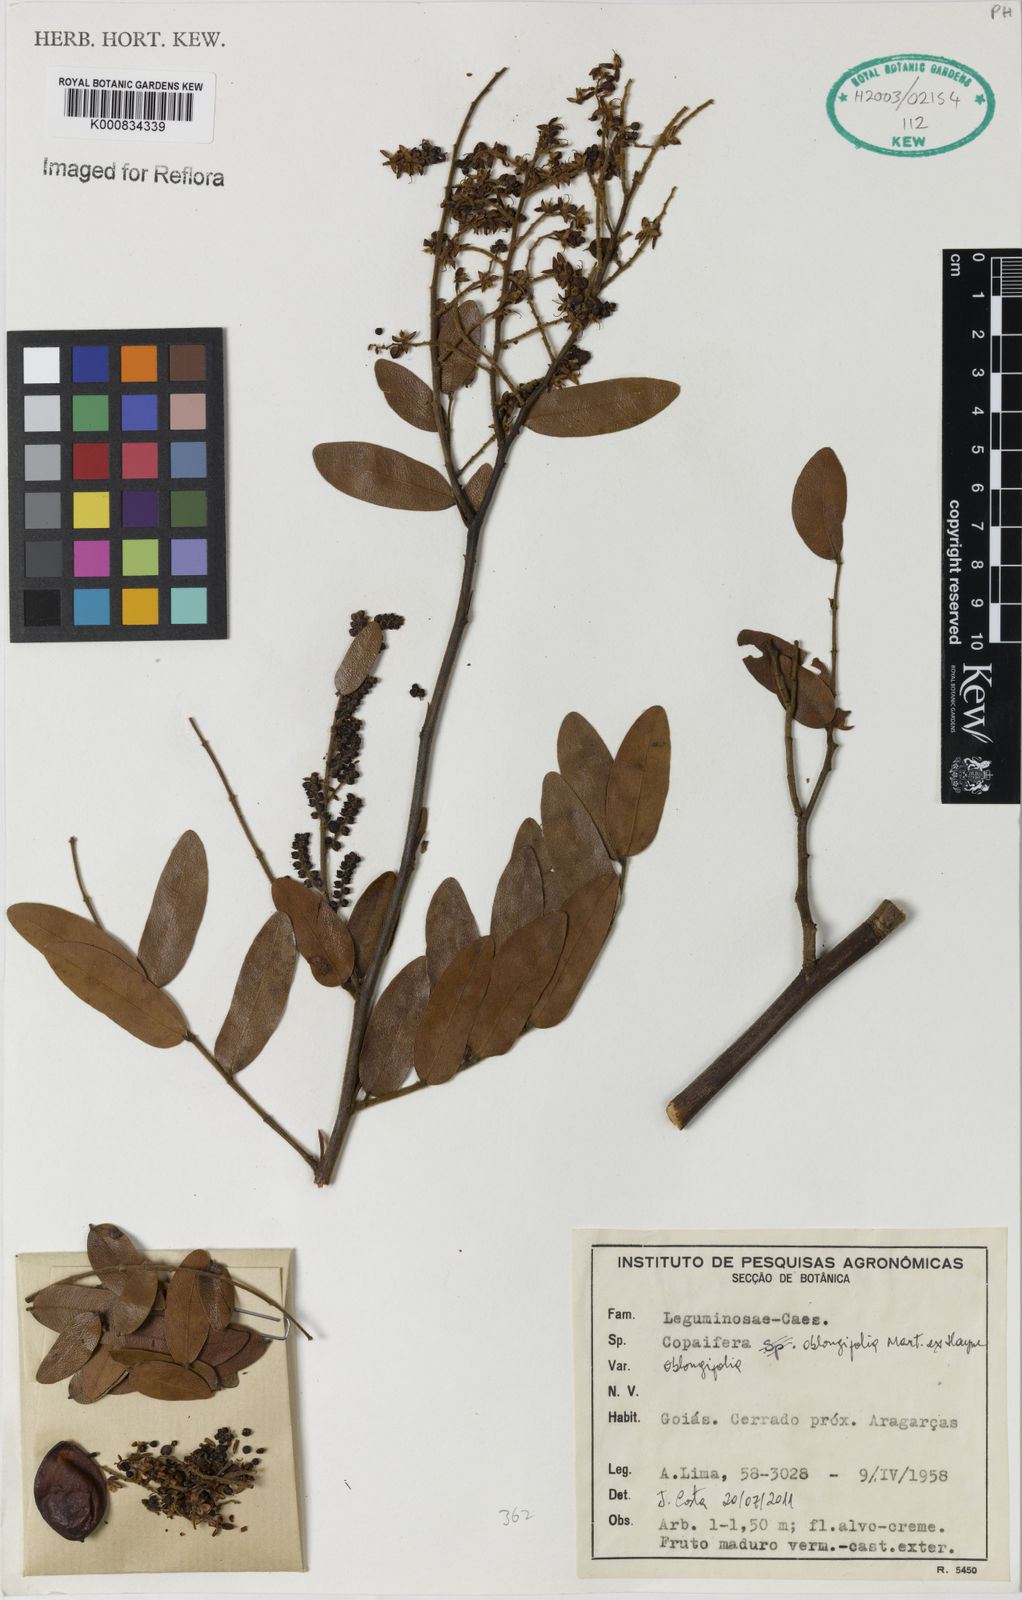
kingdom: Plantae
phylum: Tracheophyta
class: Magnoliopsida
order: Fabales
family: Fabaceae
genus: Copaifera
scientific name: Copaifera
